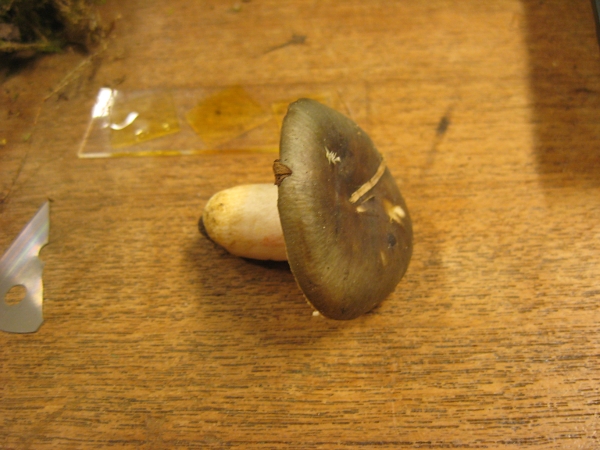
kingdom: Fungi
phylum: Basidiomycota
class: Agaricomycetes
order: Russulales
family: Russulaceae
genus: Russula
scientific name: Russula grisea
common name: grålig skørhat
